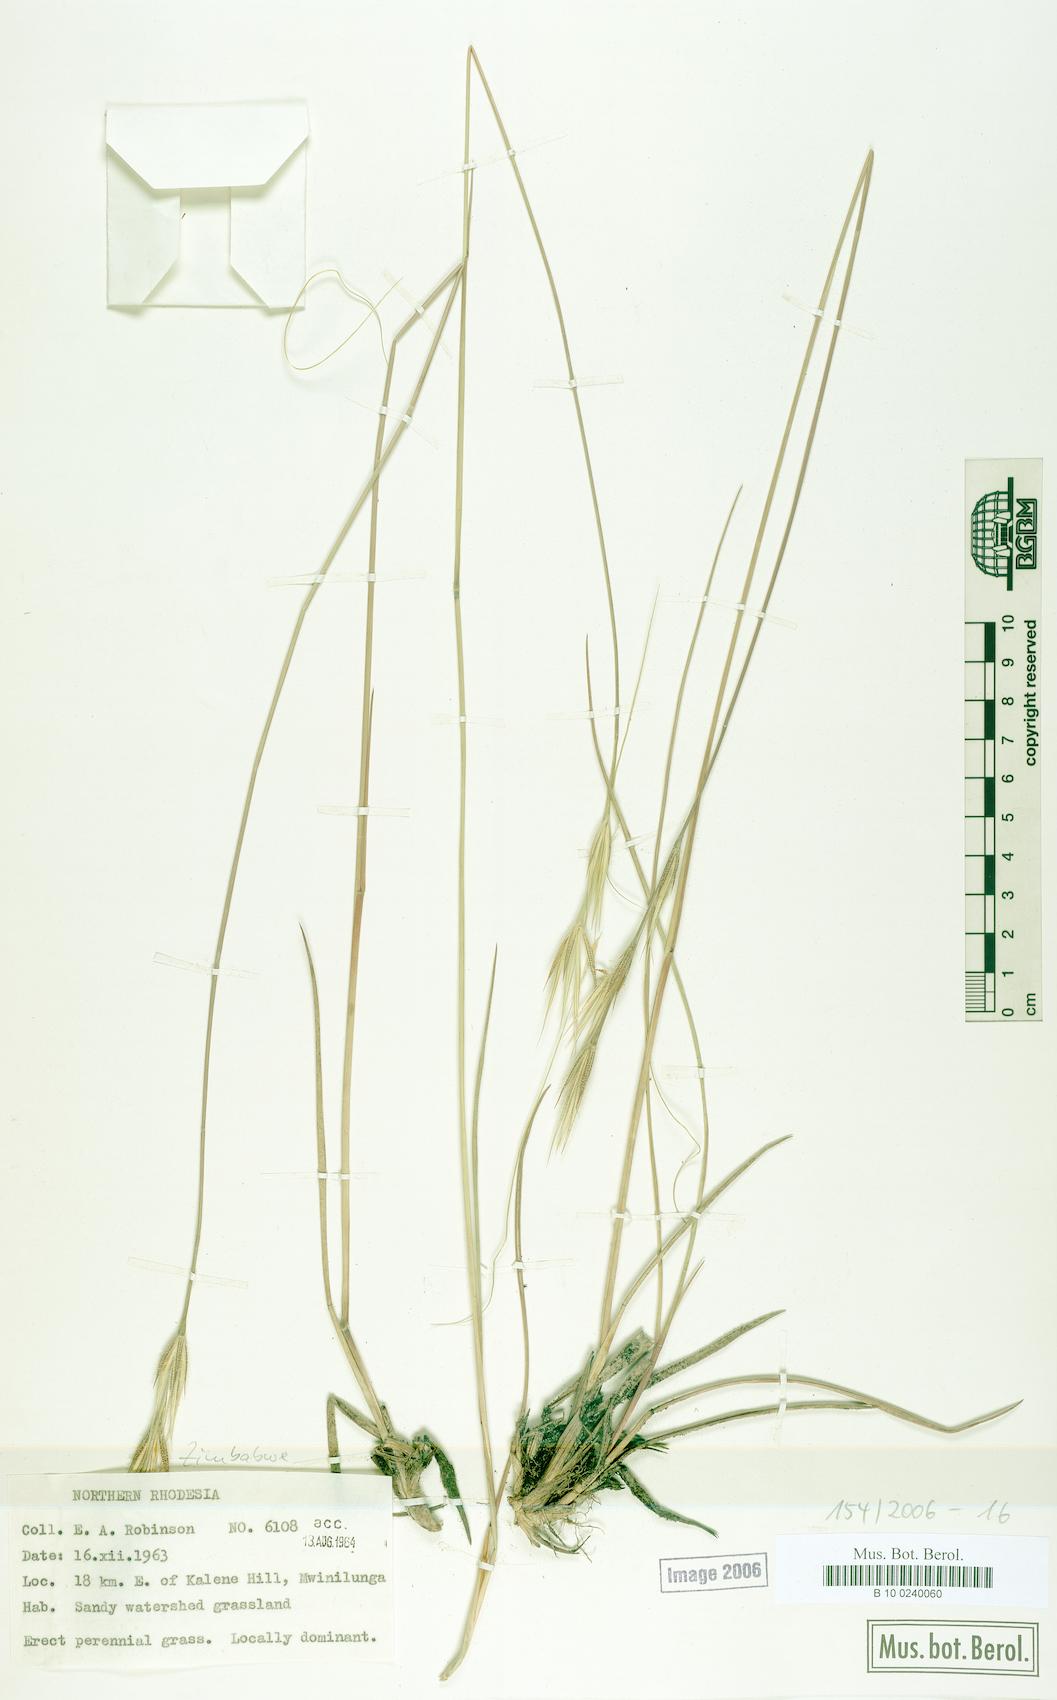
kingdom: Plantae
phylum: Tracheophyta
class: Liliopsida
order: Poales
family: Poaceae
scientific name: Poaceae
